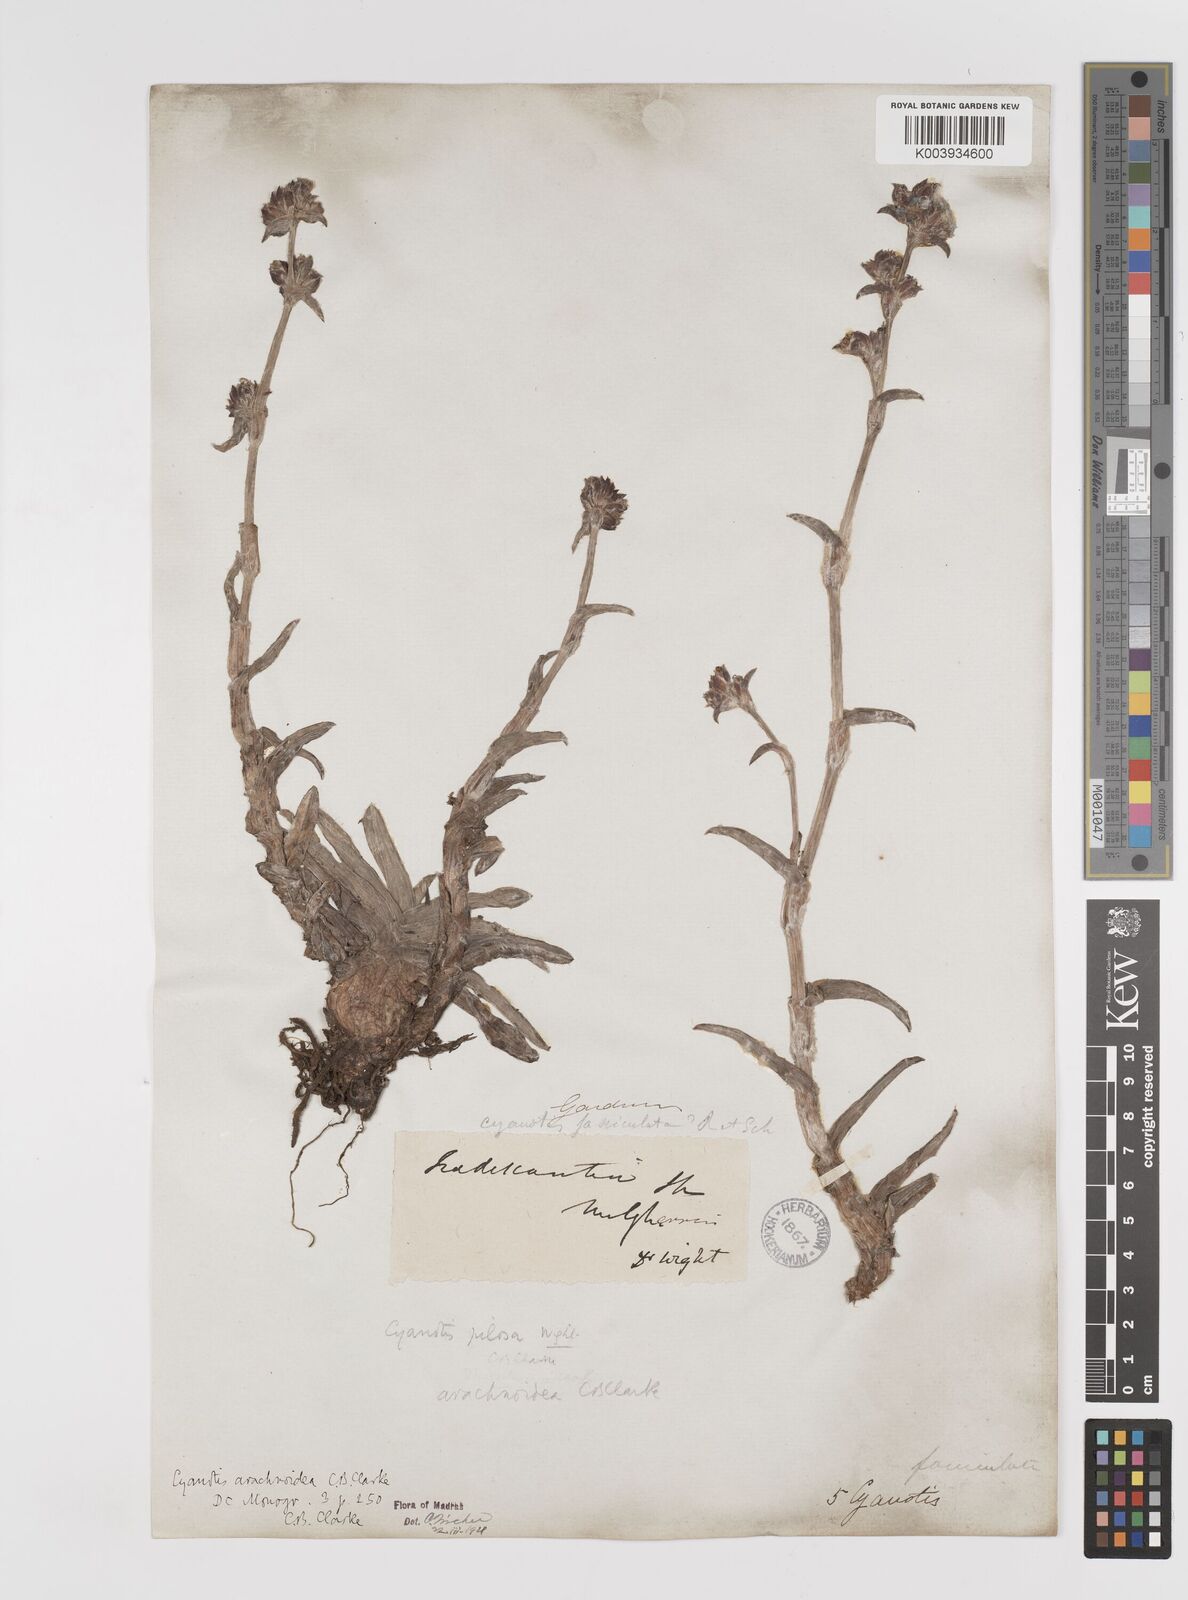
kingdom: Plantae
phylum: Tracheophyta
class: Liliopsida
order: Commelinales
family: Commelinaceae
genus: Cyanotis
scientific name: Cyanotis arachnoidea
